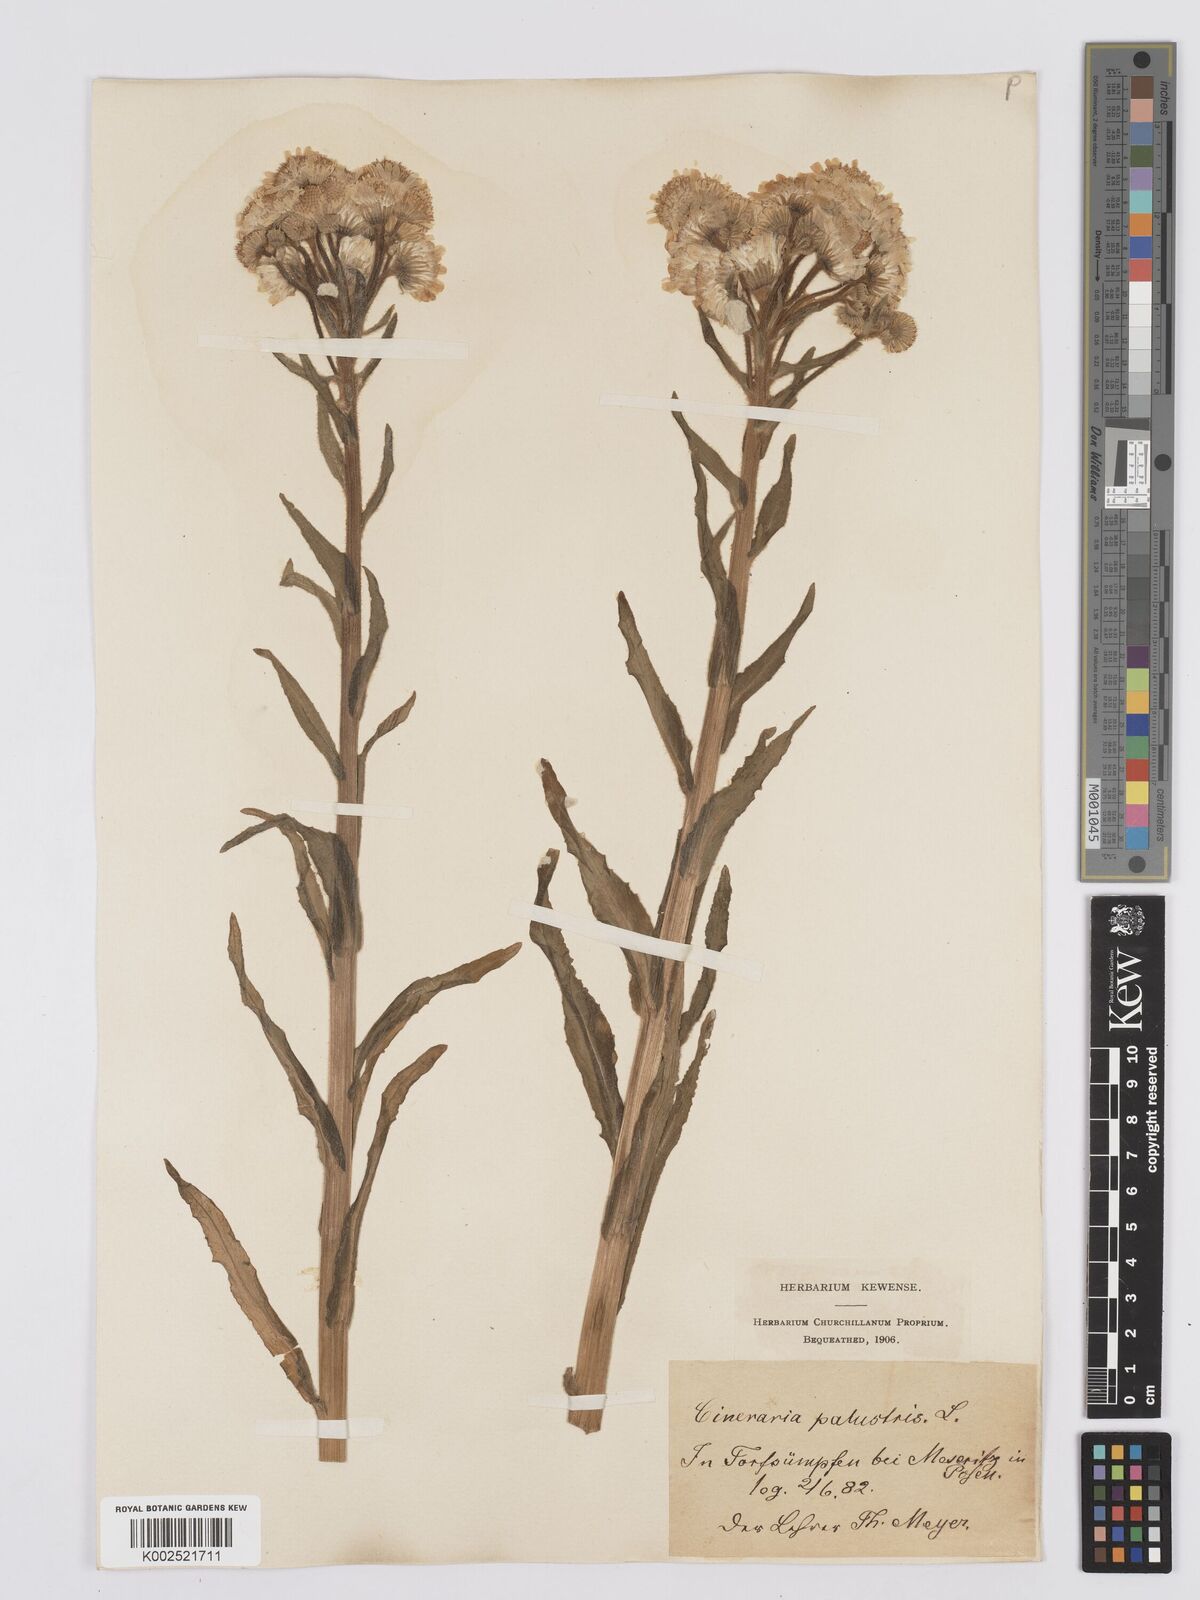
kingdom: Plantae
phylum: Tracheophyta
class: Magnoliopsida
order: Asterales
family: Asteraceae
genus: Tephroseris
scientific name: Tephroseris palustris
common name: Marsh fleawort
